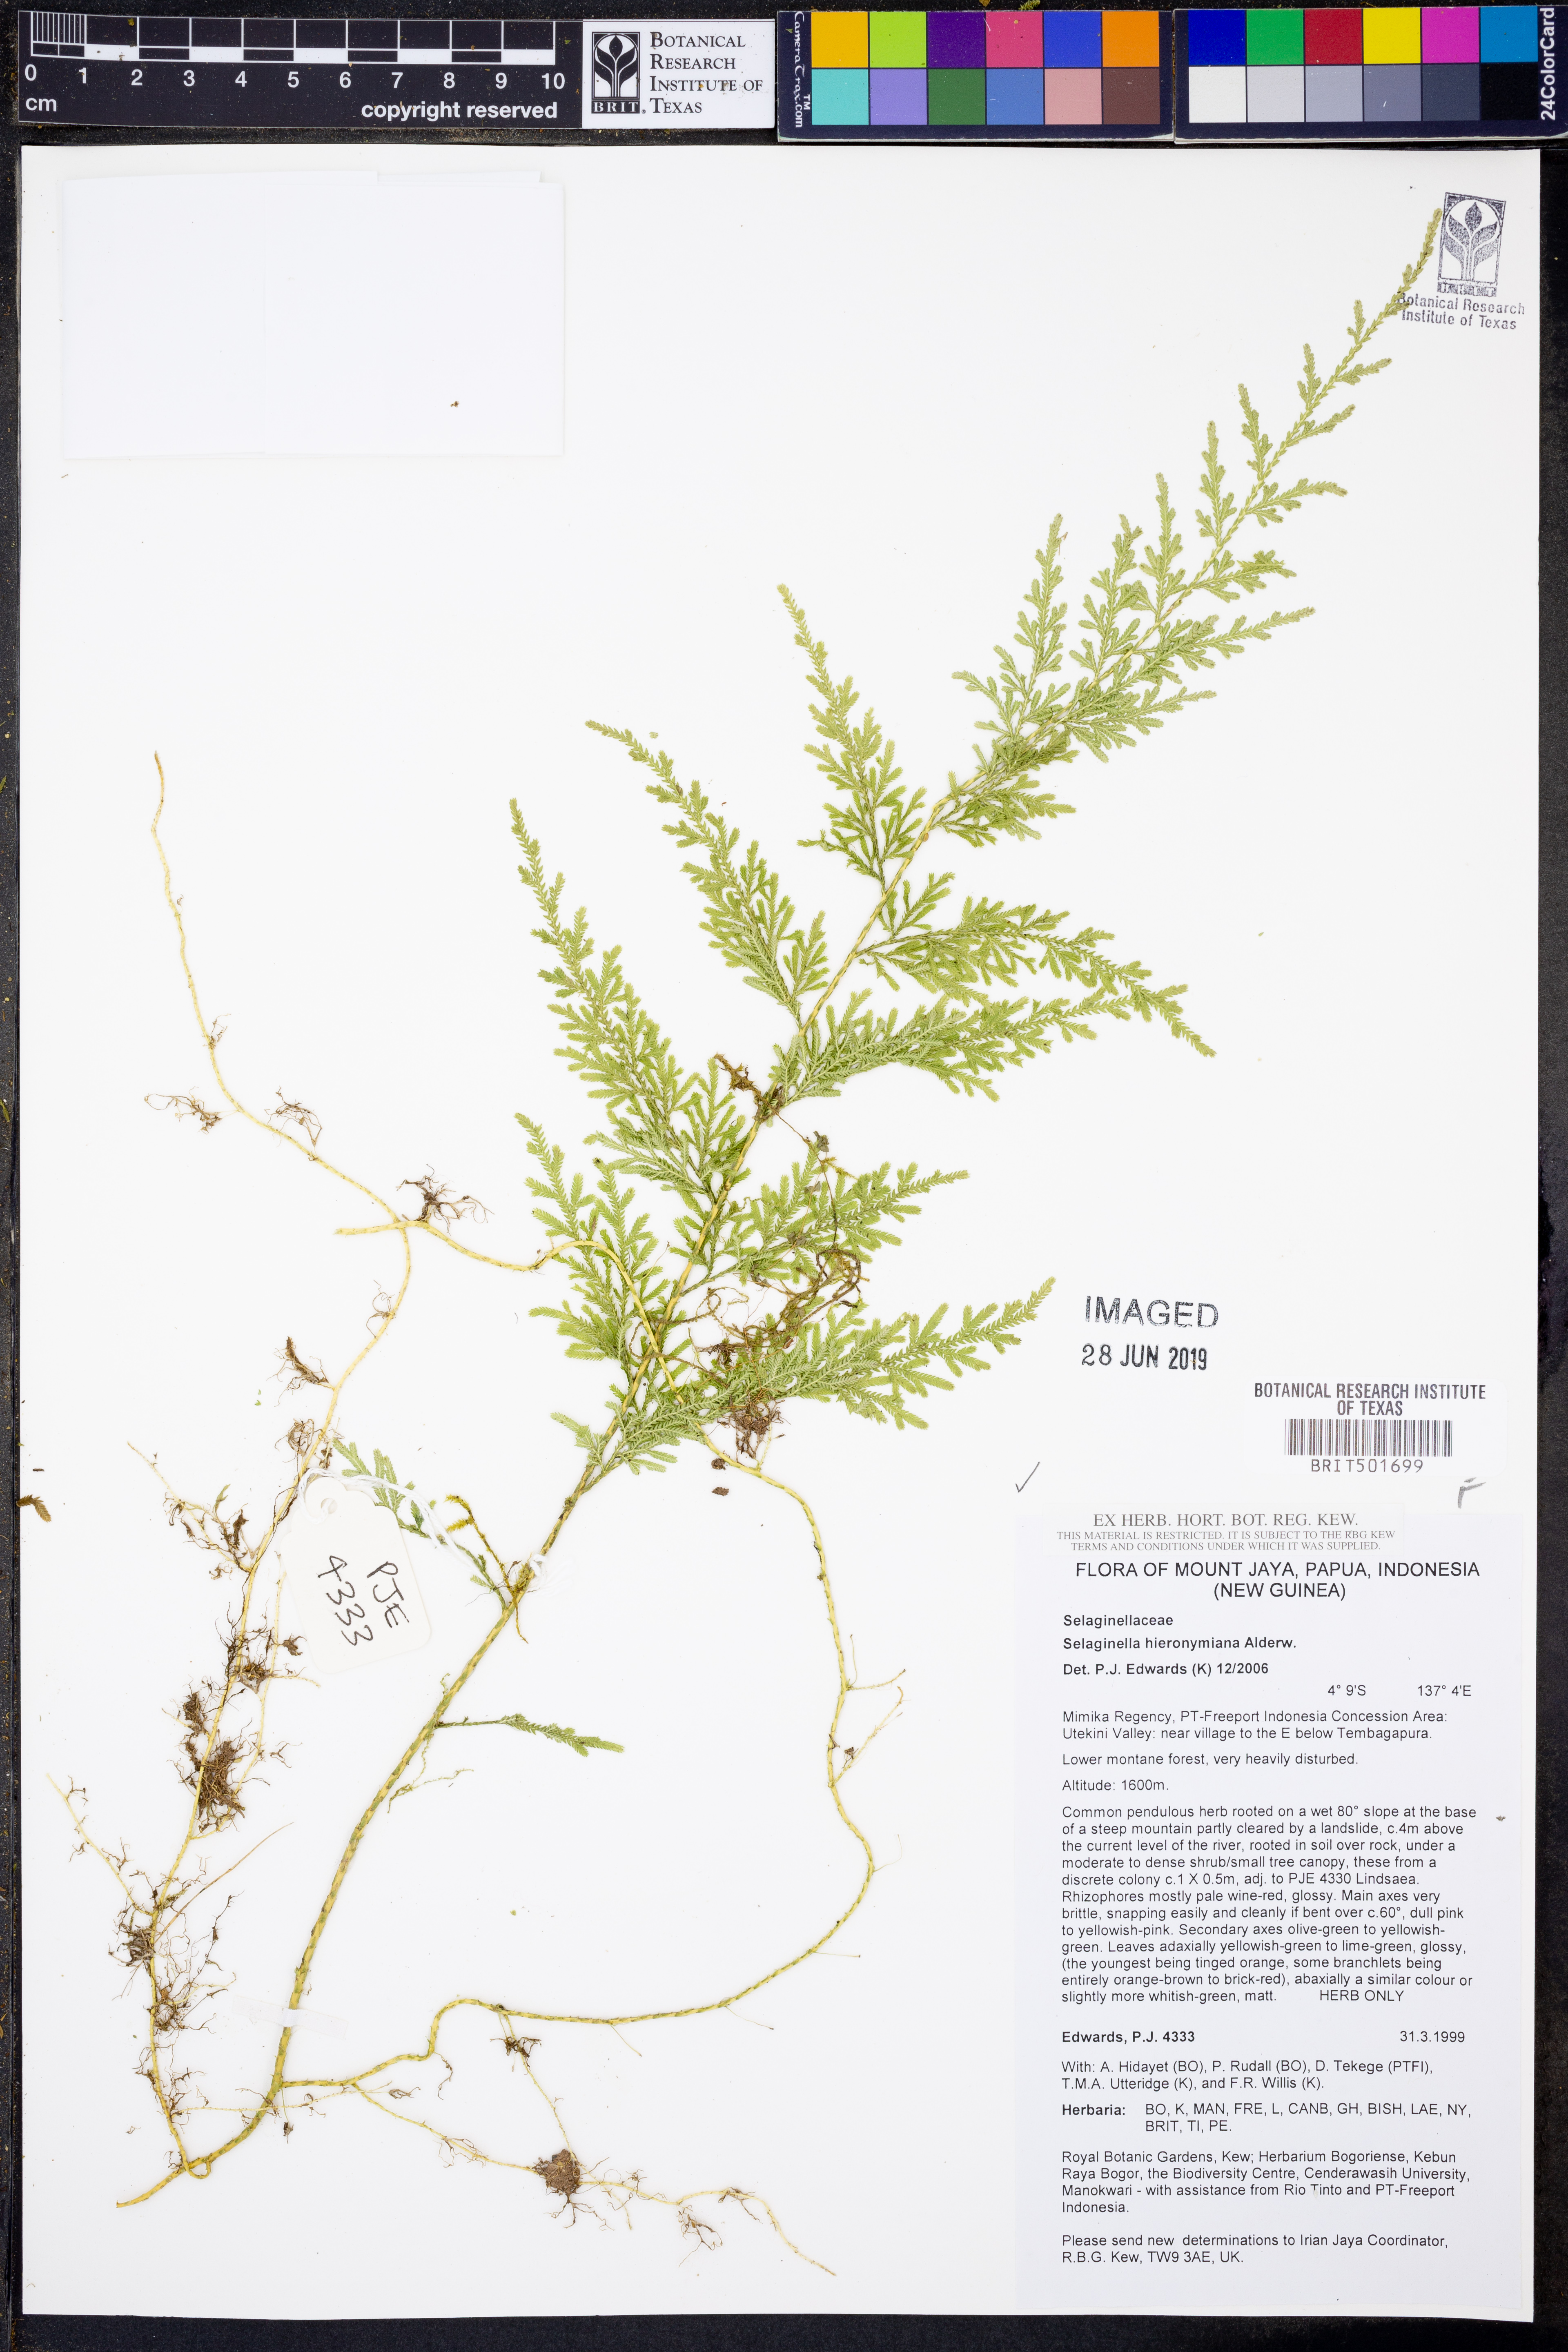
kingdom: Plantae
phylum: Tracheophyta
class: Lycopodiopsida
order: Selaginellales
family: Selaginellaceae
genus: Selaginella
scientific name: Selaginella hieronymiana
